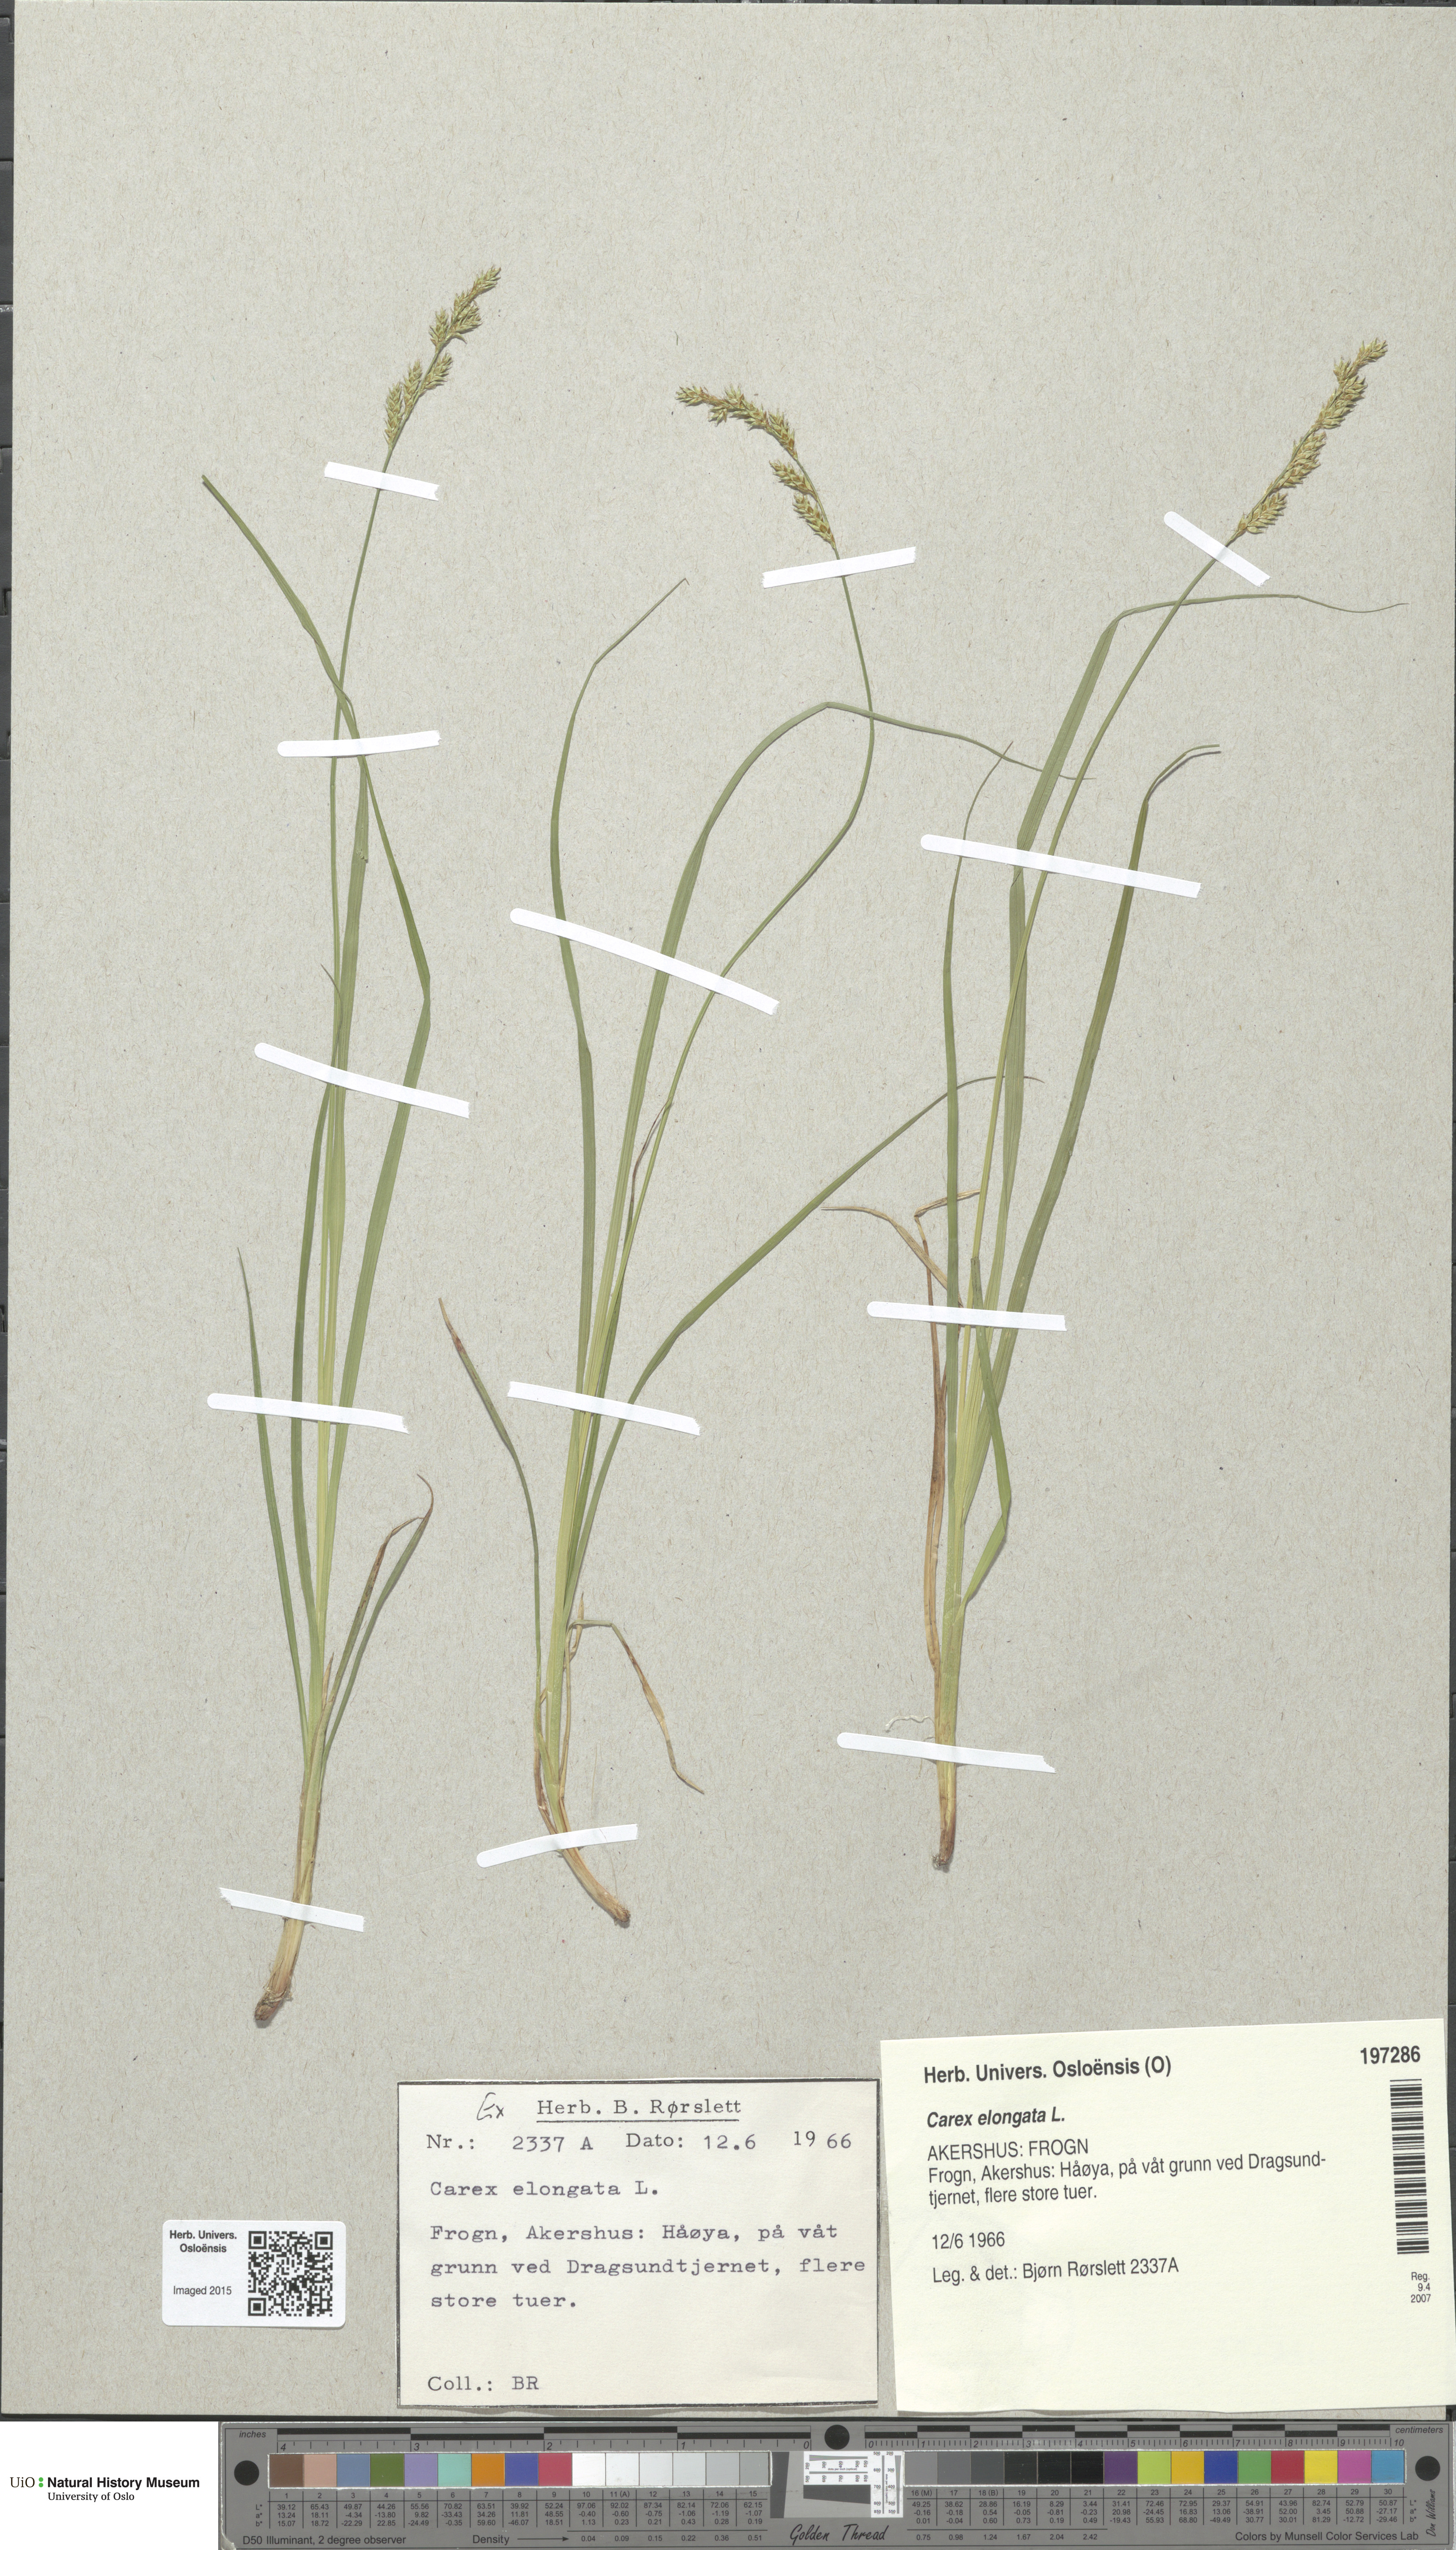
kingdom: Plantae
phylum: Tracheophyta
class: Liliopsida
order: Poales
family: Cyperaceae
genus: Carex
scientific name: Carex elongata
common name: Elongated sedge
